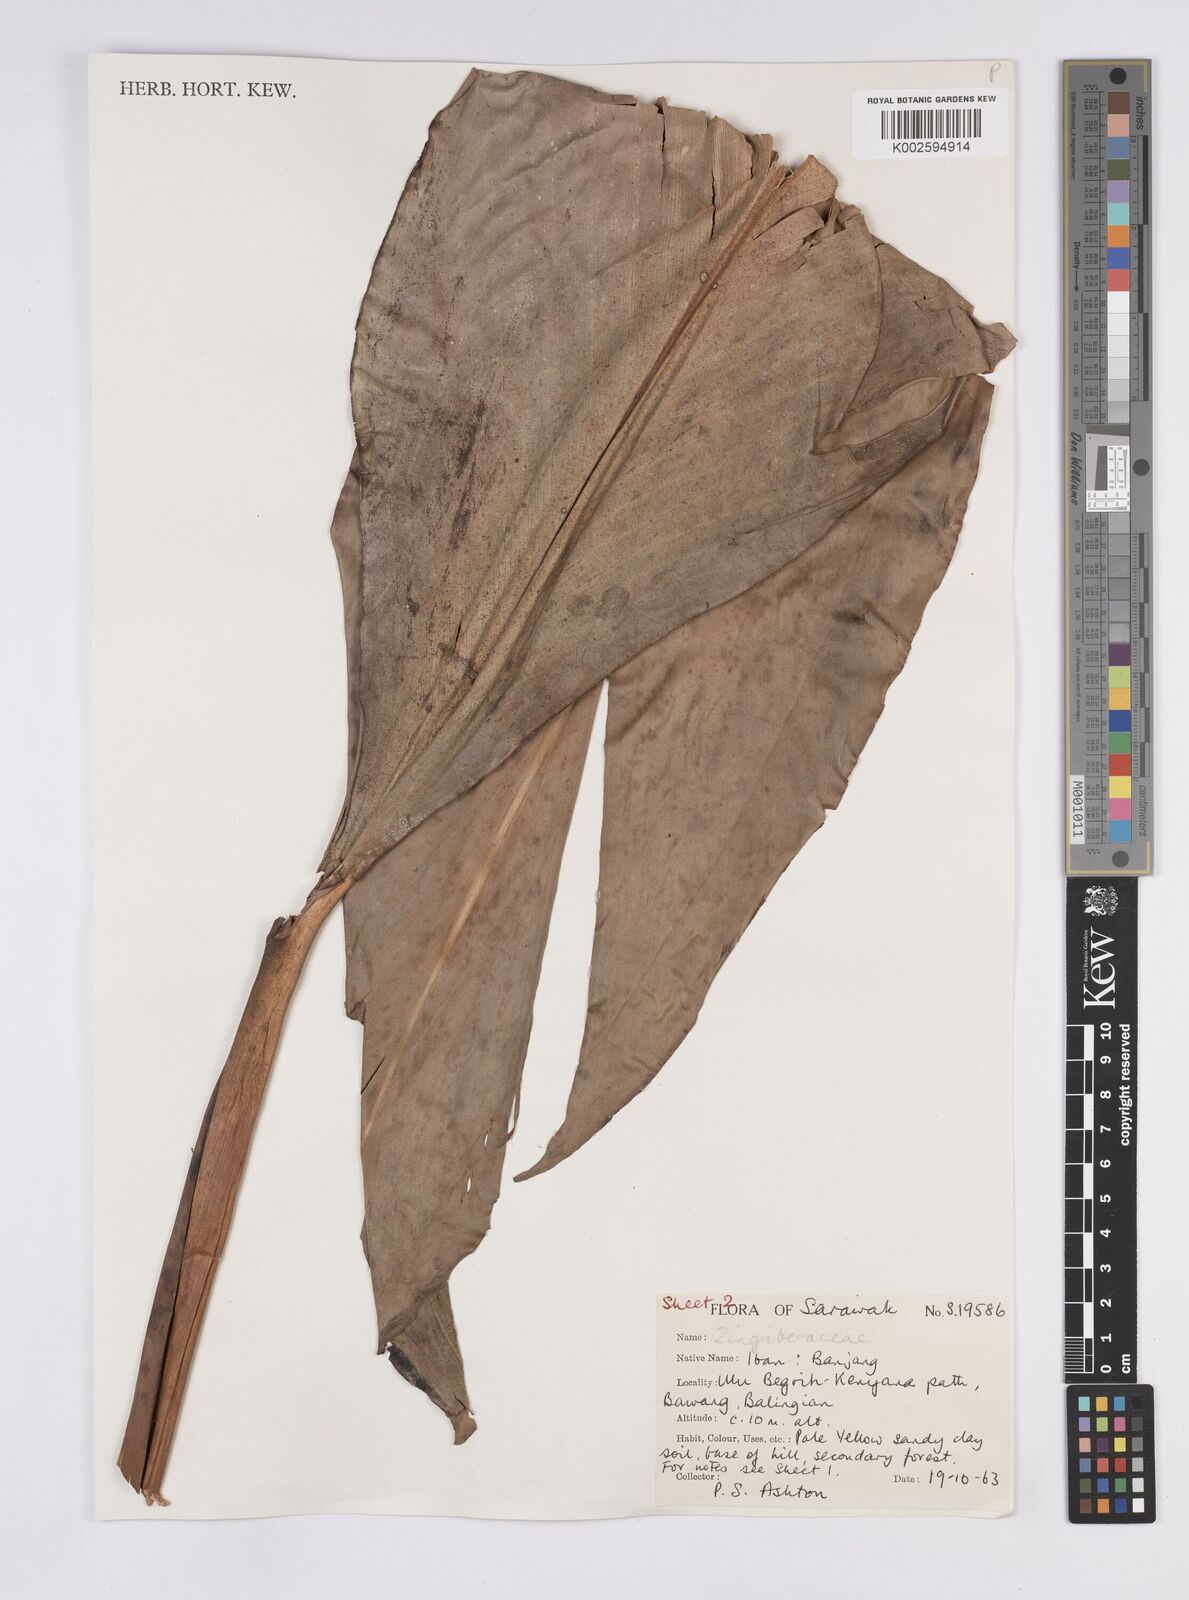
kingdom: Plantae
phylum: Tracheophyta
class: Liliopsida
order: Zingiberales
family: Zingiberaceae
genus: Plagiostachys
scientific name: Plagiostachys crocydocalyx
